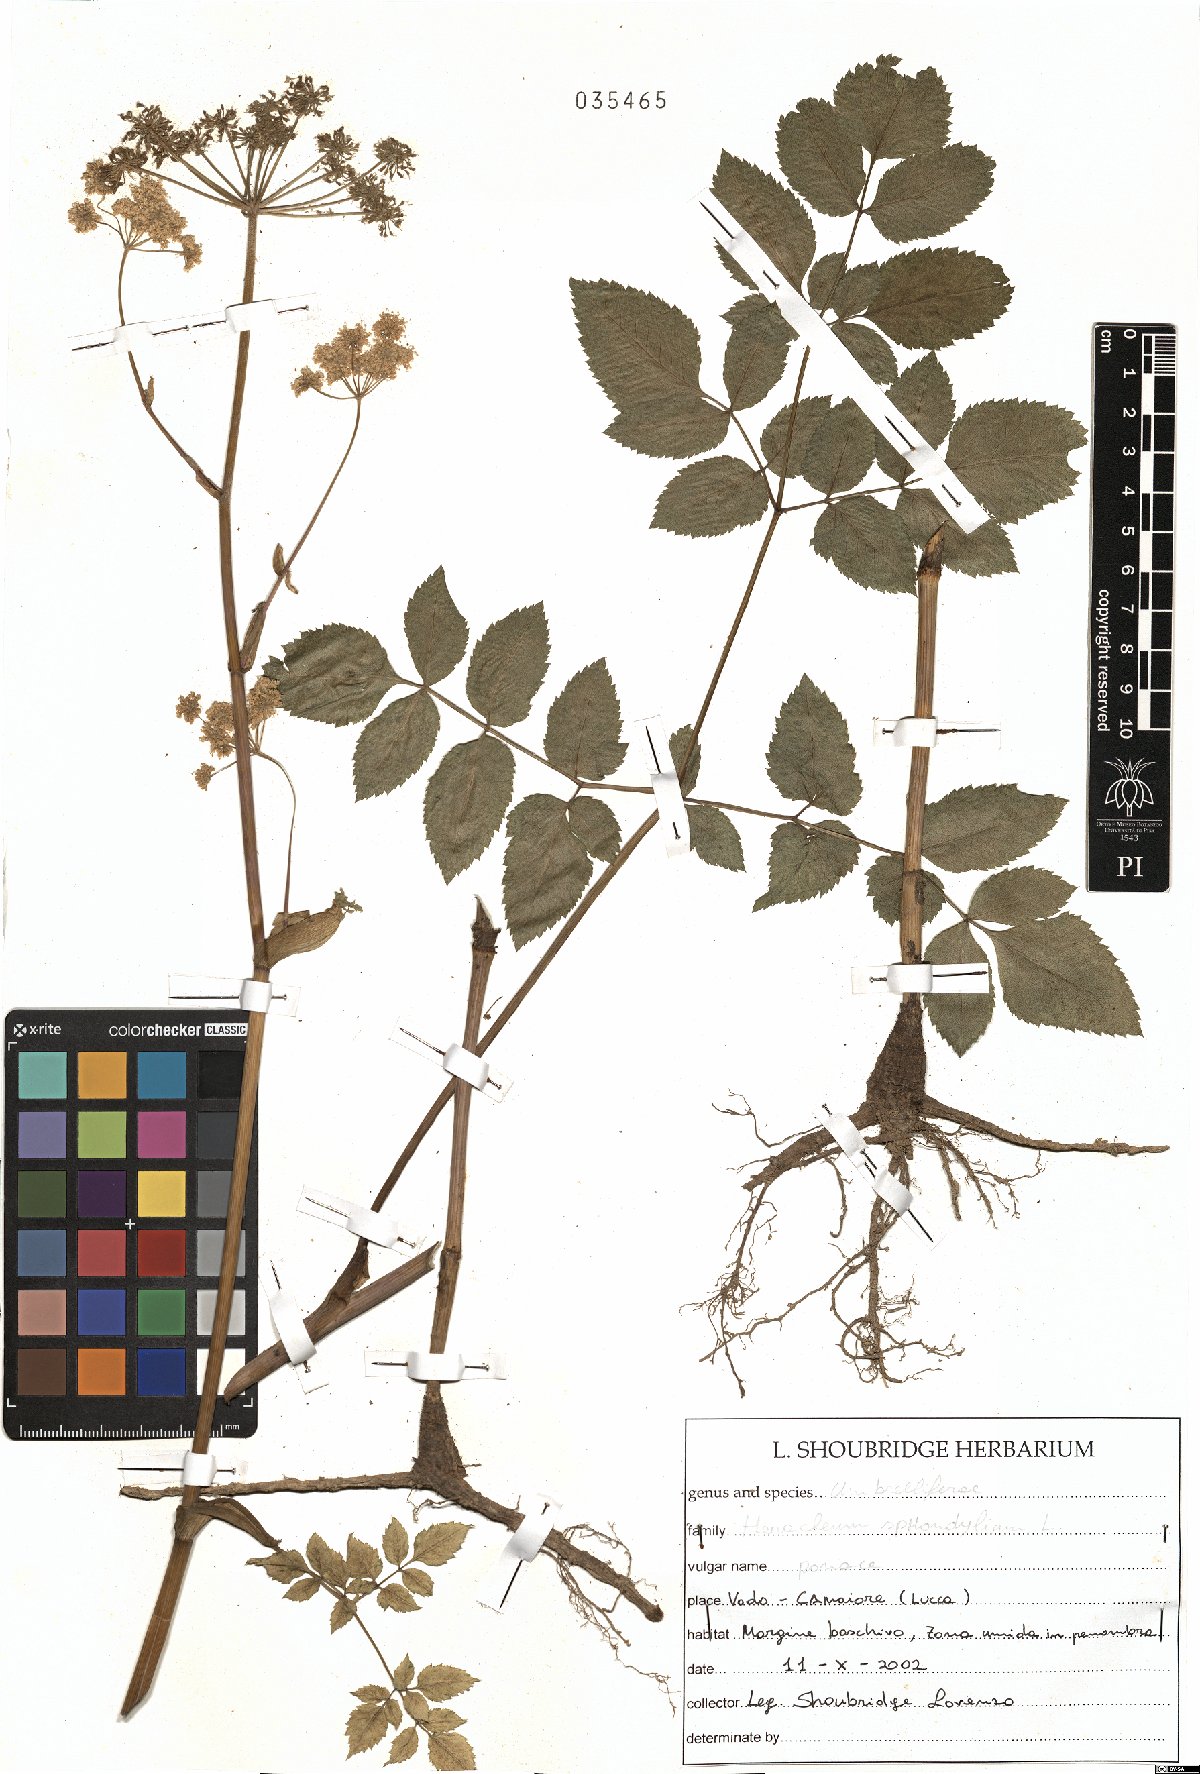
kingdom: Plantae
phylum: Tracheophyta
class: Magnoliopsida
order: Apiales
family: Apiaceae
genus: Heracleum
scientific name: Heracleum sphondylium
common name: Hogweed
